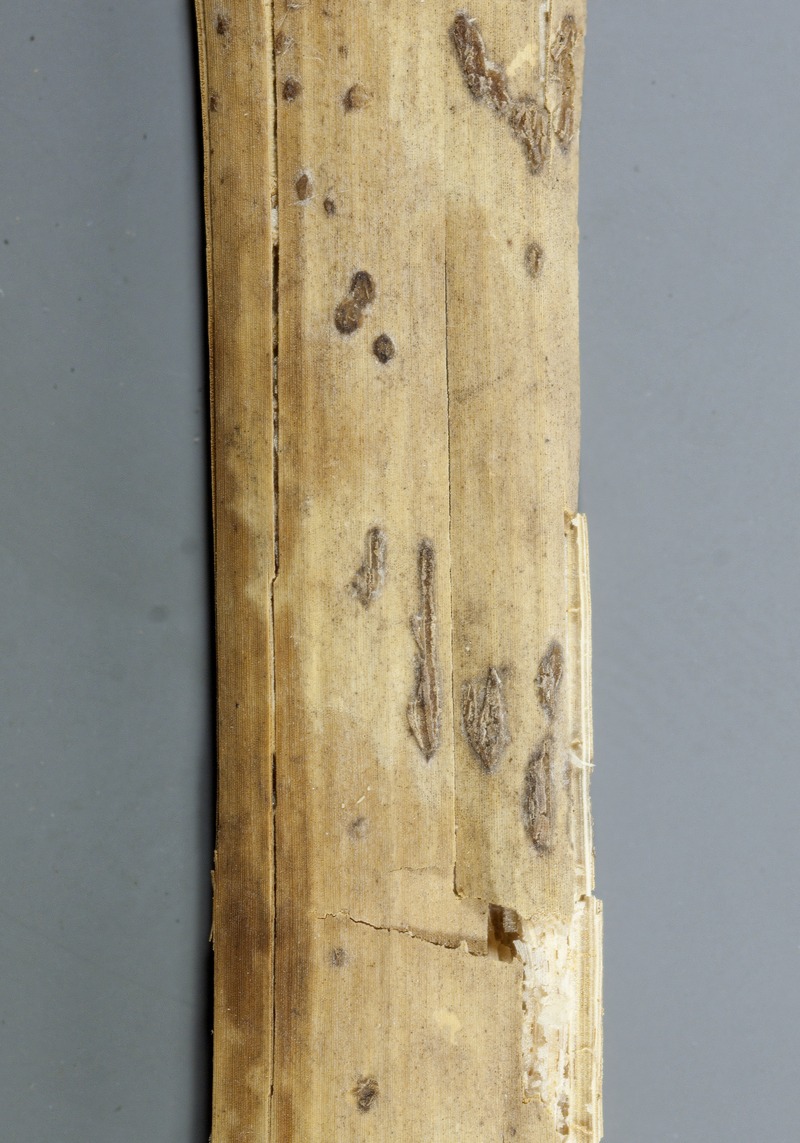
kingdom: Fungi
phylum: Ascomycota
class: Leotiomycetes
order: Helotiales
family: Sclerotiniaceae
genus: Myrioconium
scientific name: Myrioconium scirpi
